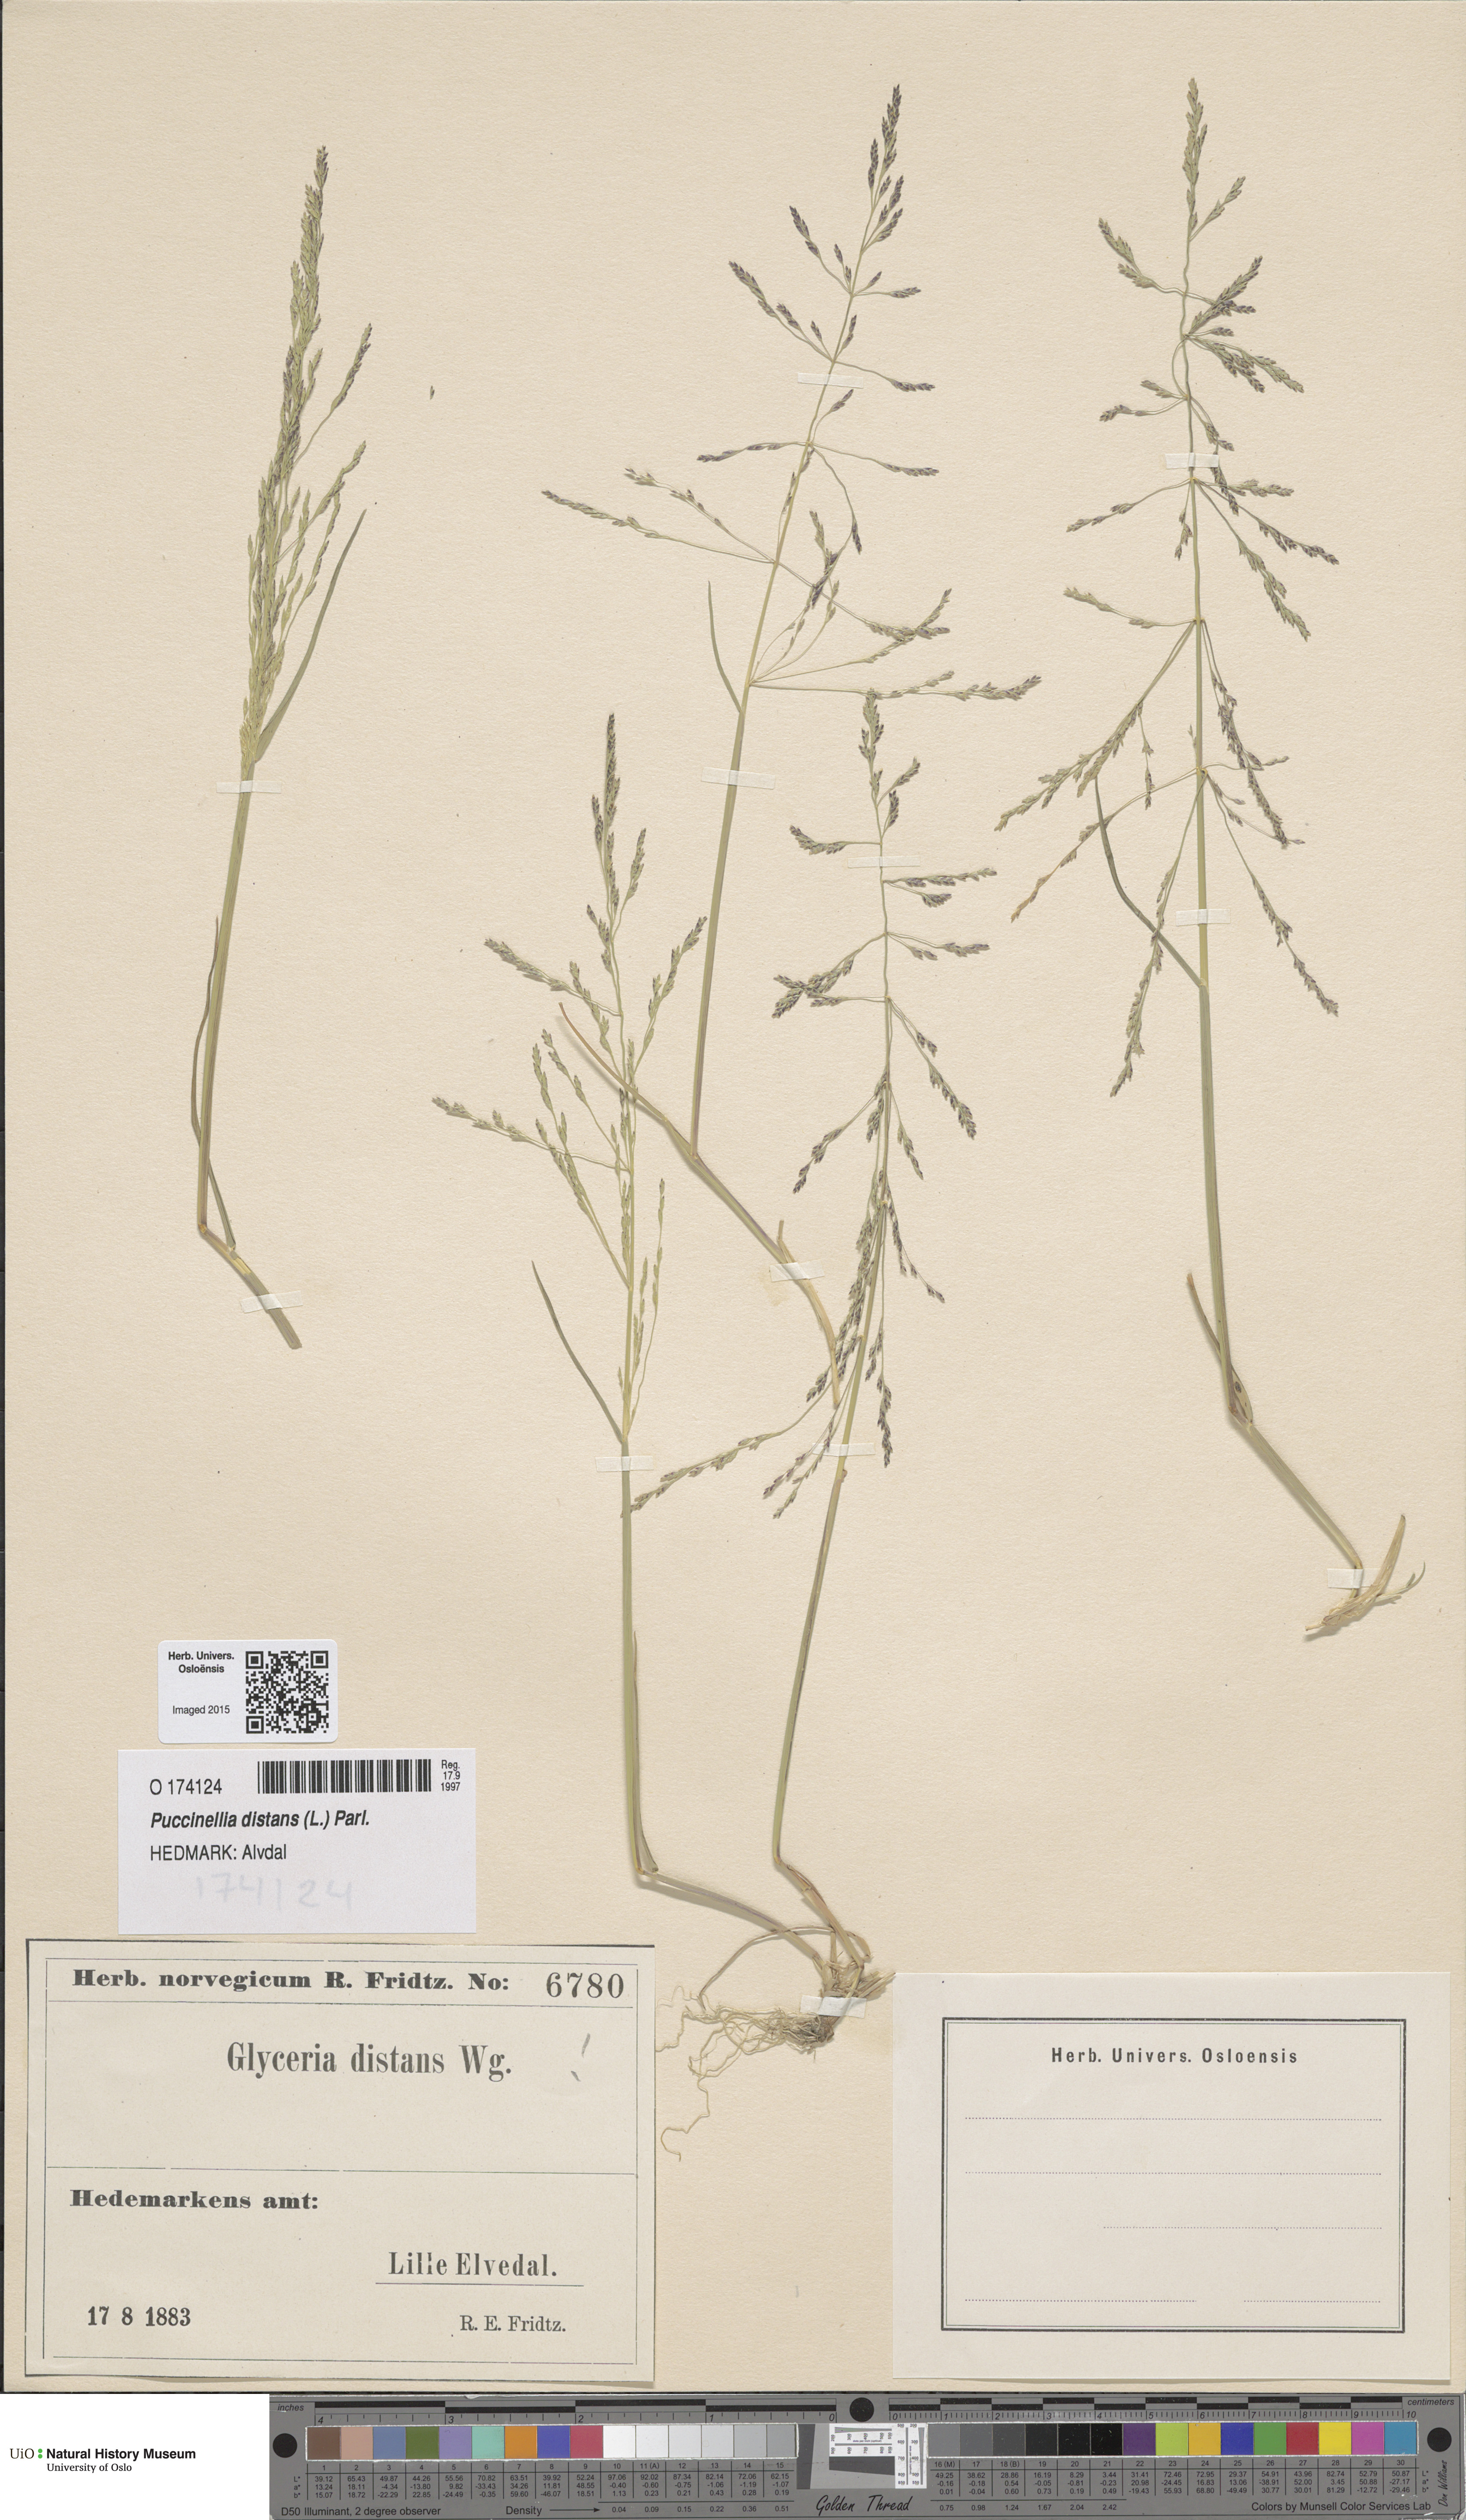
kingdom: Plantae
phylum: Tracheophyta
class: Liliopsida
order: Poales
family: Poaceae
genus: Puccinellia
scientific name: Puccinellia distans
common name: Weeping alkaligrass
